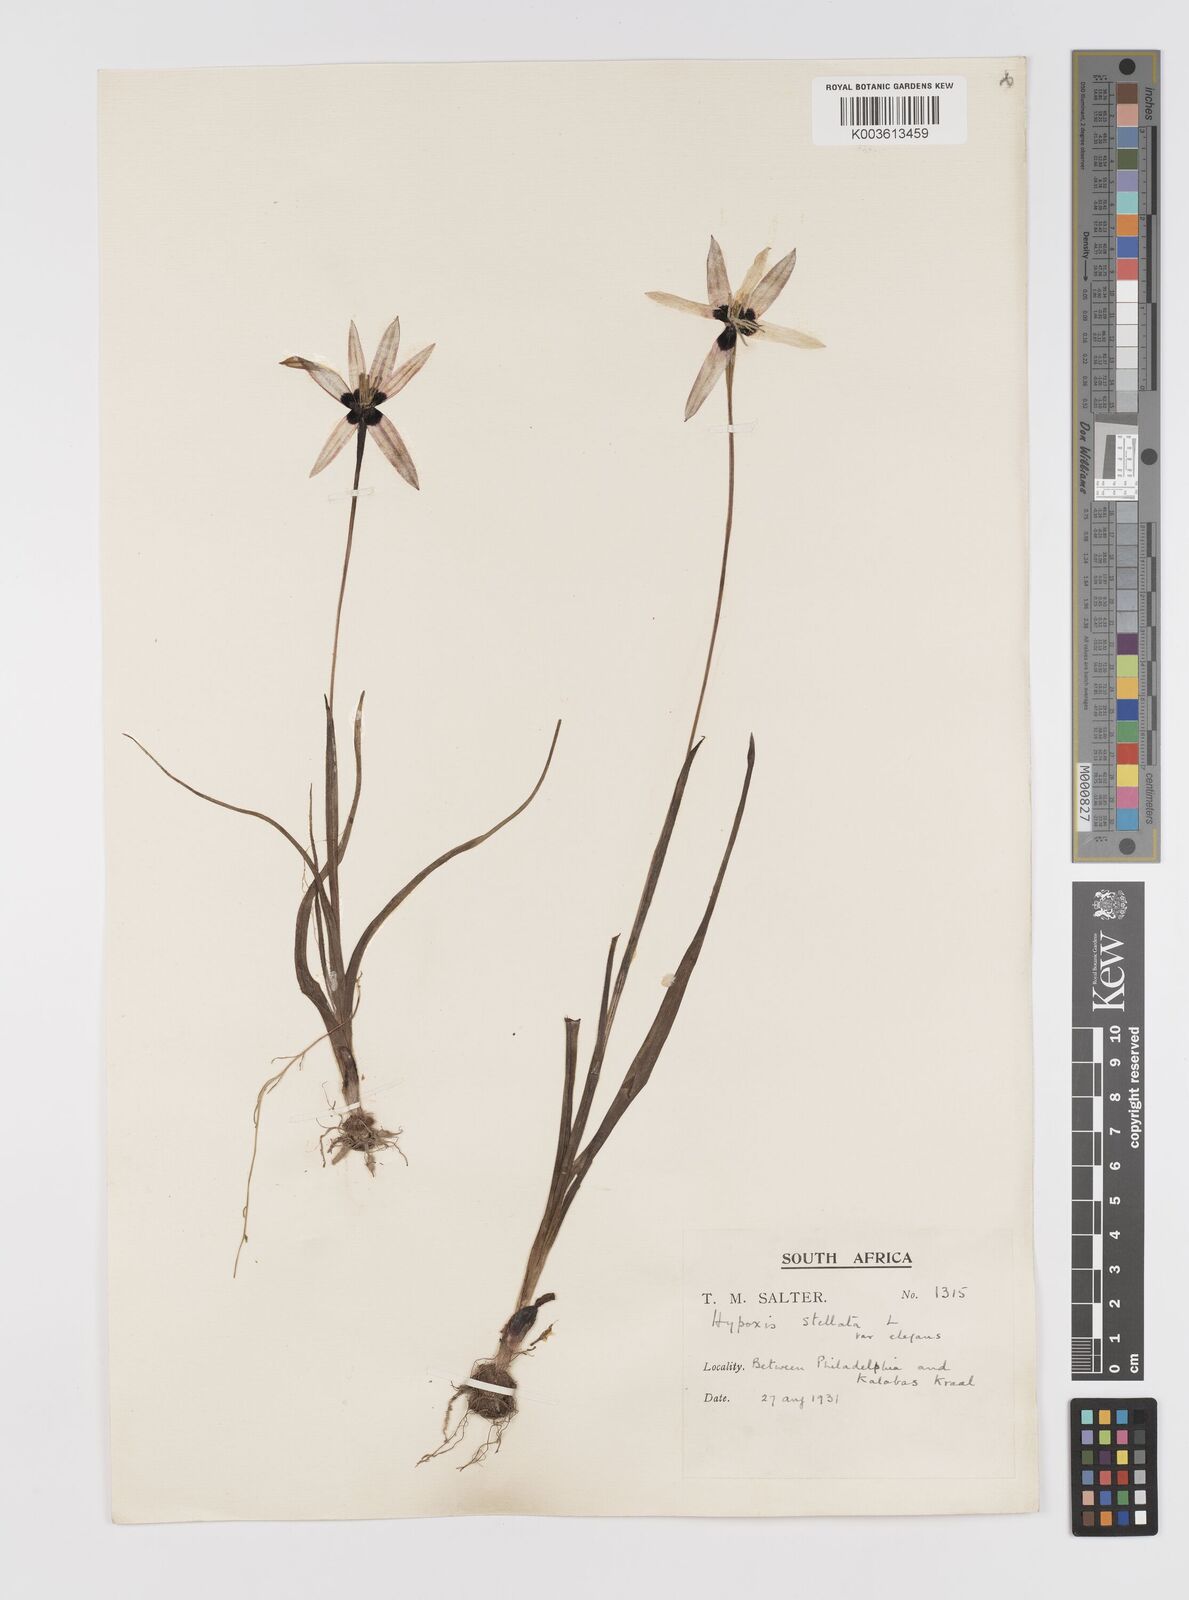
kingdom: Plantae
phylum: Tracheophyta
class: Liliopsida
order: Asparagales
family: Hypoxidaceae
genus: Pauridia
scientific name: Pauridia capensis
